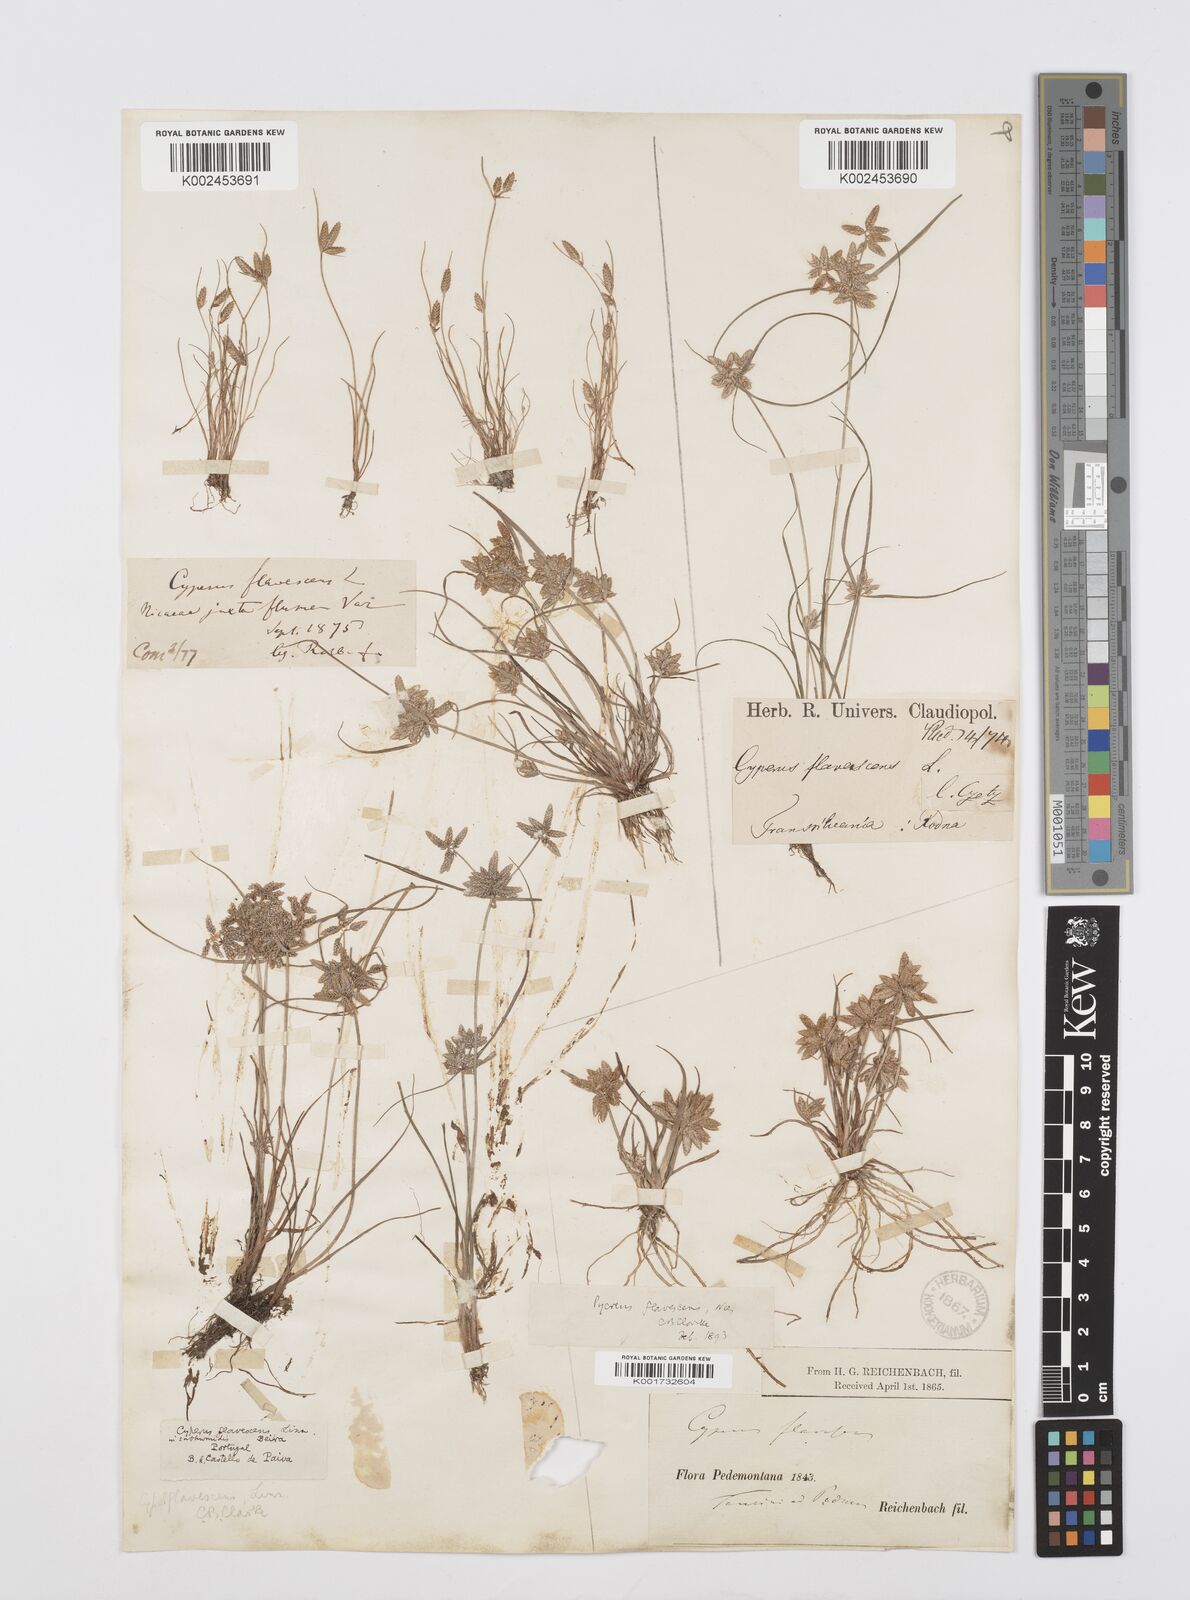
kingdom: Plantae
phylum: Tracheophyta
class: Liliopsida
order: Poales
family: Cyperaceae
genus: Cyperus
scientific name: Cyperus flavescens
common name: Yellow galingale
